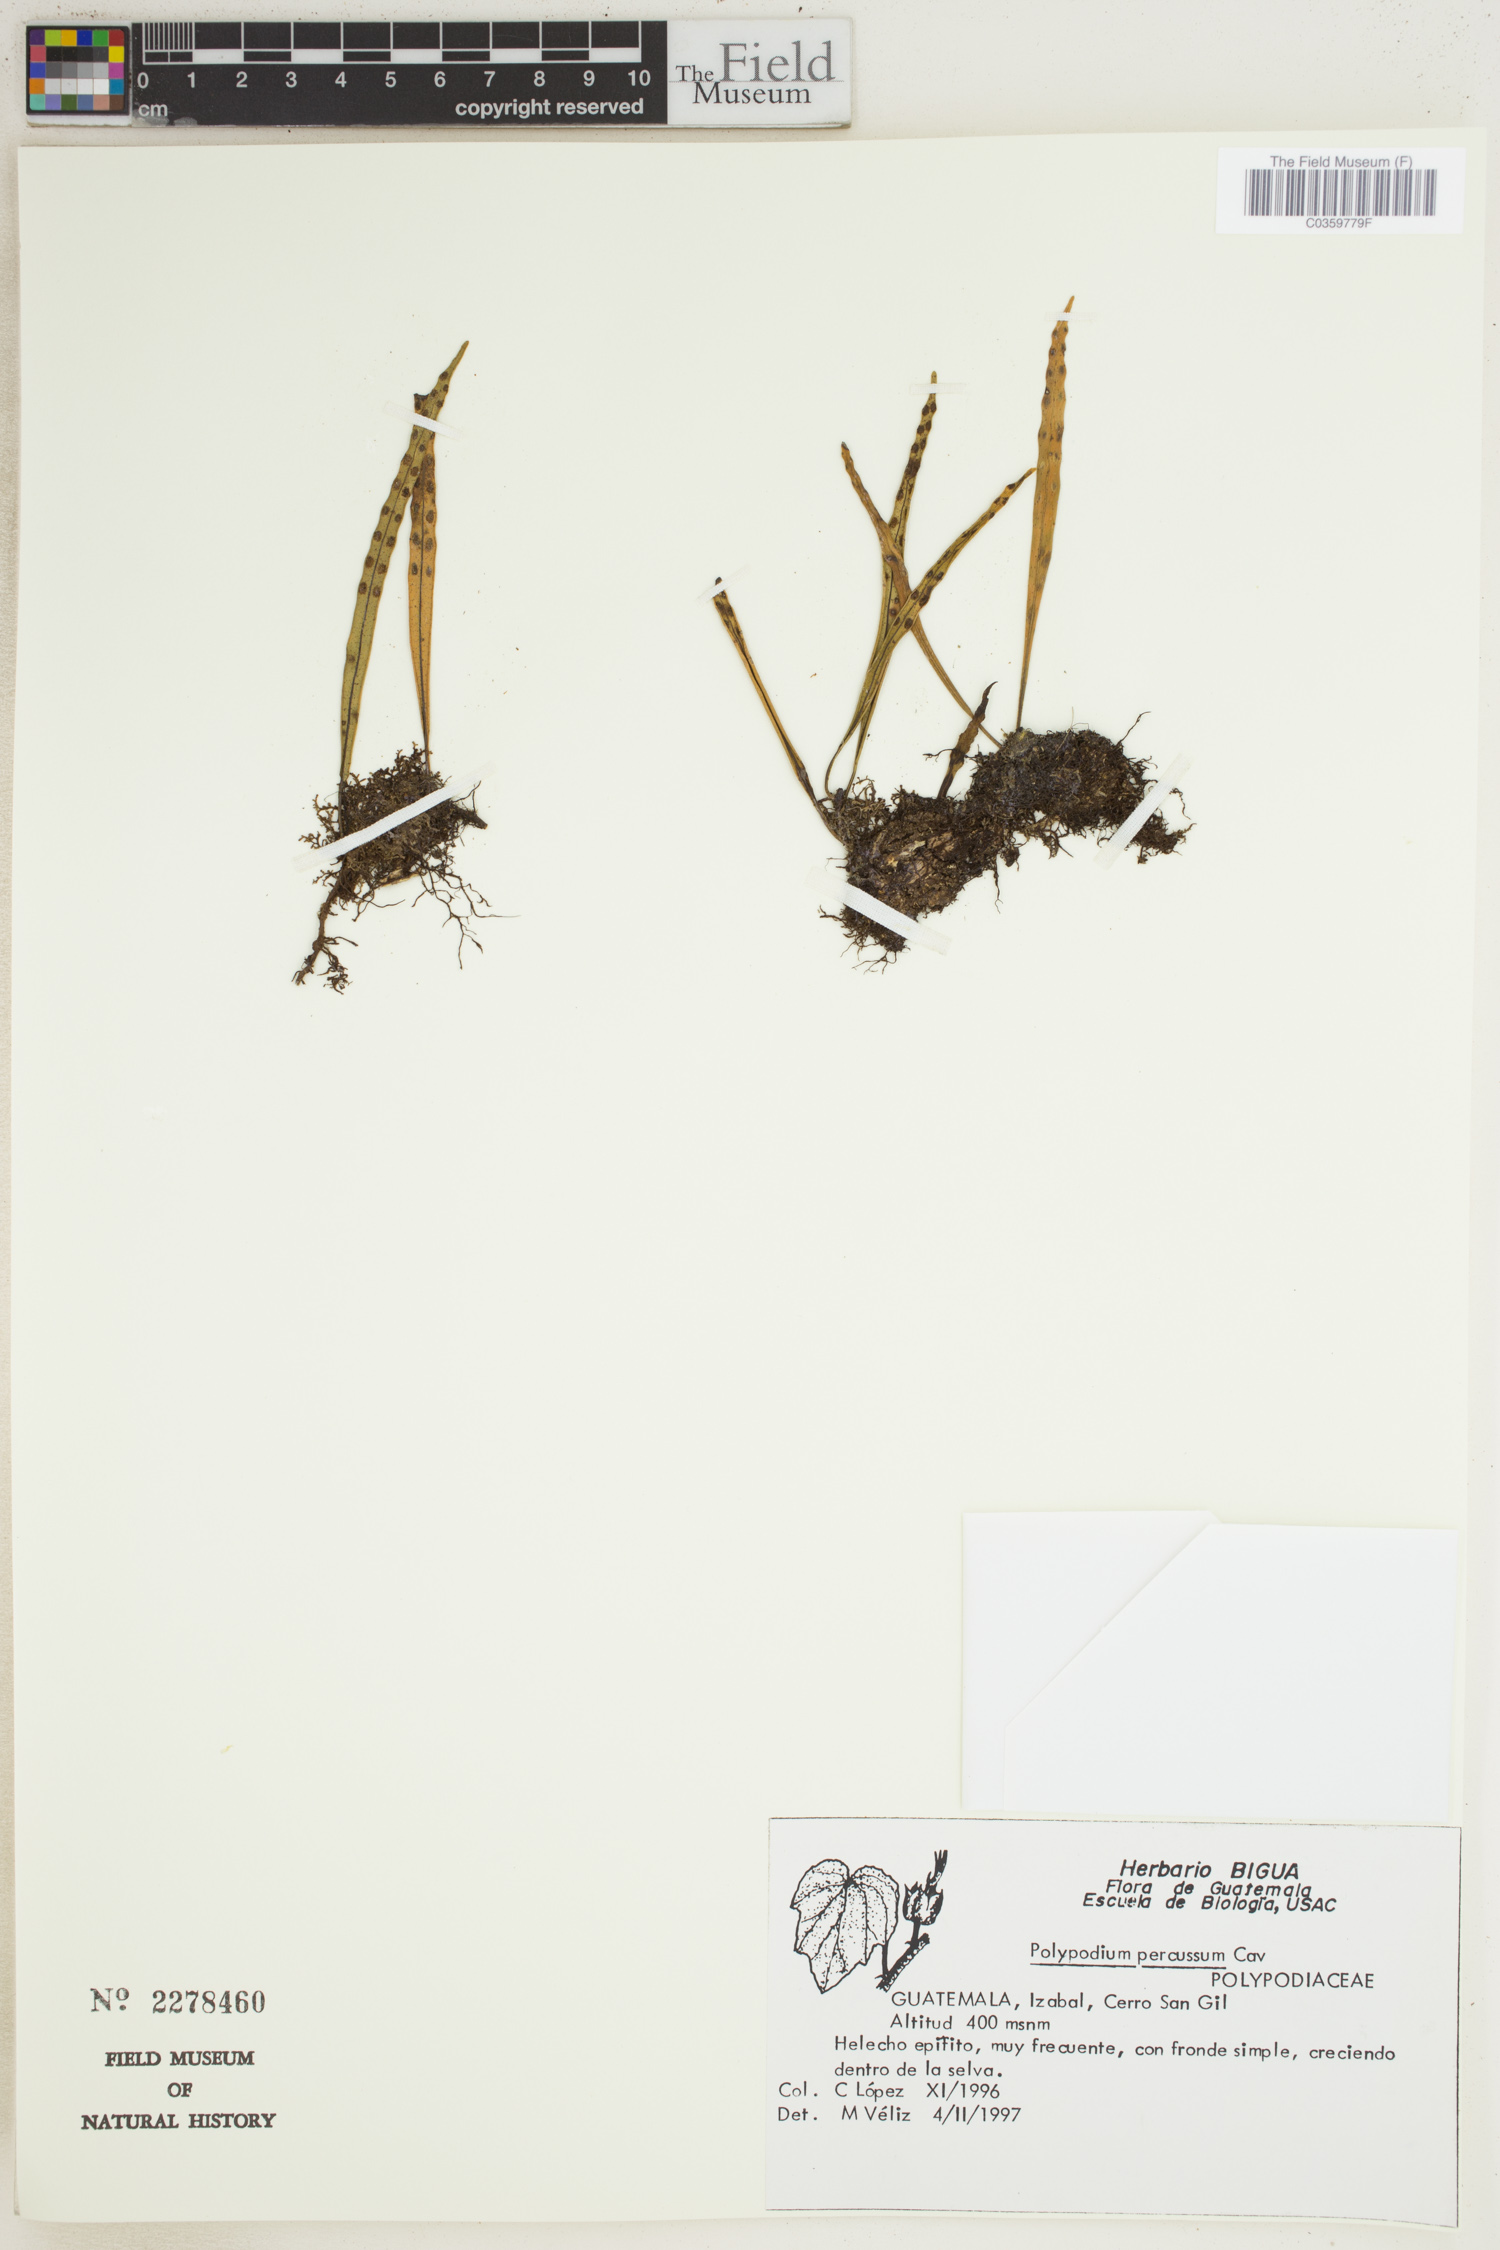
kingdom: Plantae
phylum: Tracheophyta
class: Polypodiopsida
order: Polypodiales
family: Polypodiaceae
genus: Microgramma
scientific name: Microgramma percussa
